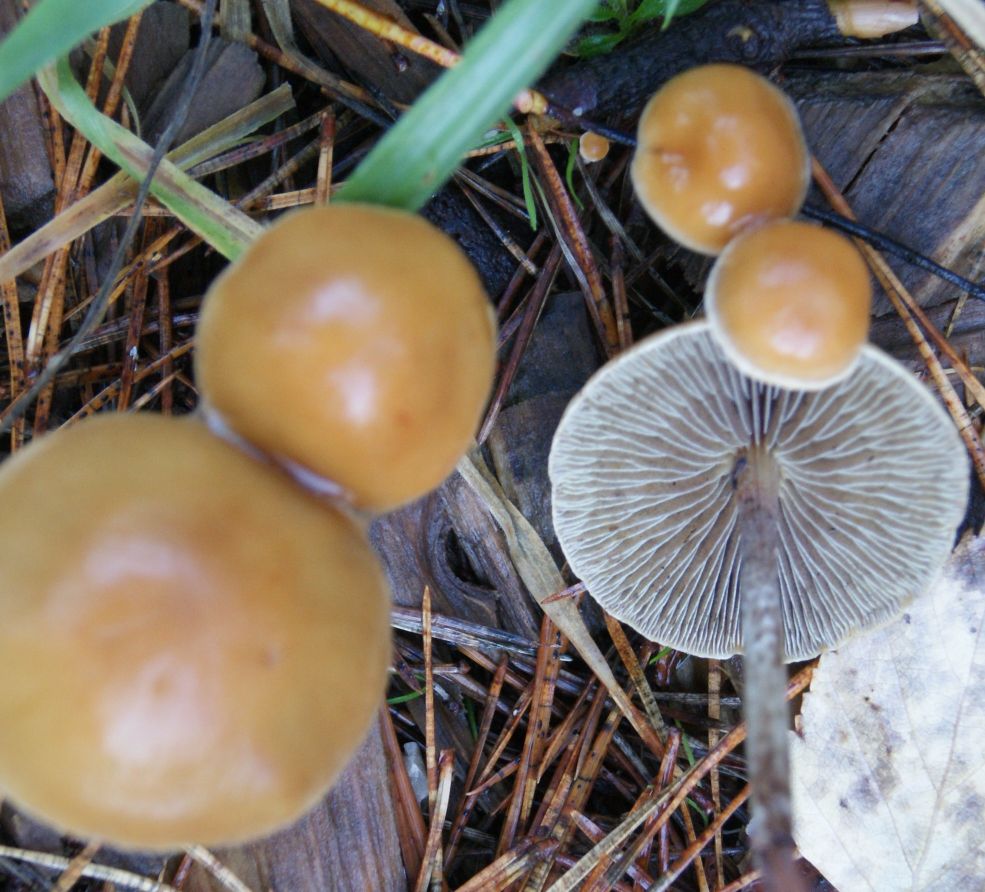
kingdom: Fungi
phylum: Basidiomycota
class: Agaricomycetes
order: Agaricales
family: Strophariaceae
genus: Hypholoma
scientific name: Hypholoma marginatum
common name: enlig svovlhat
